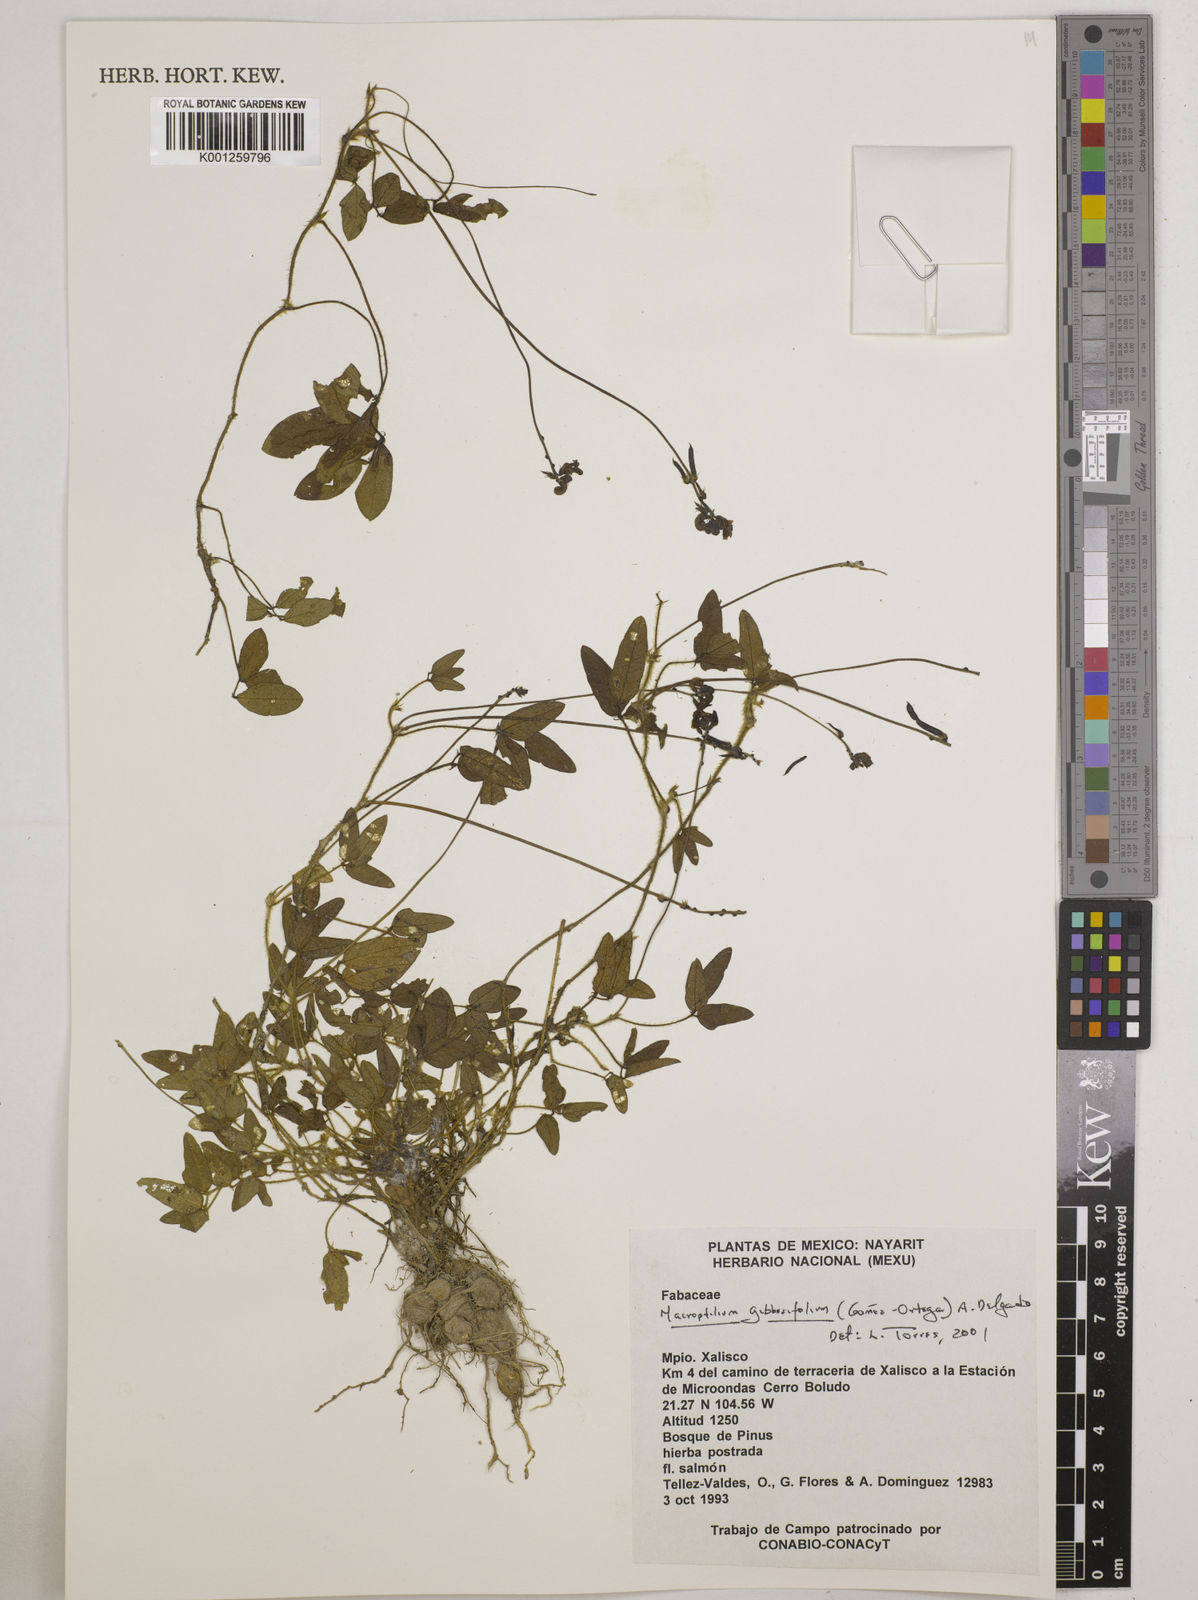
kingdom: Plantae
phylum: Tracheophyta
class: Magnoliopsida
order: Fabales
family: Fabaceae
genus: Macroptilium
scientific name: Macroptilium gibbosifolium
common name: Variableleaf bushbean
